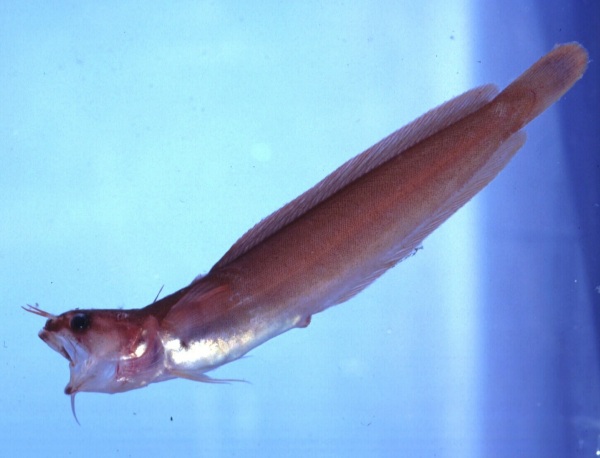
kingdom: Animalia
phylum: Chordata
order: Gadiformes
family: Lotidae
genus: Gaidropsarus
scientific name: Gaidropsarus capensis
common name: Cape rockling
